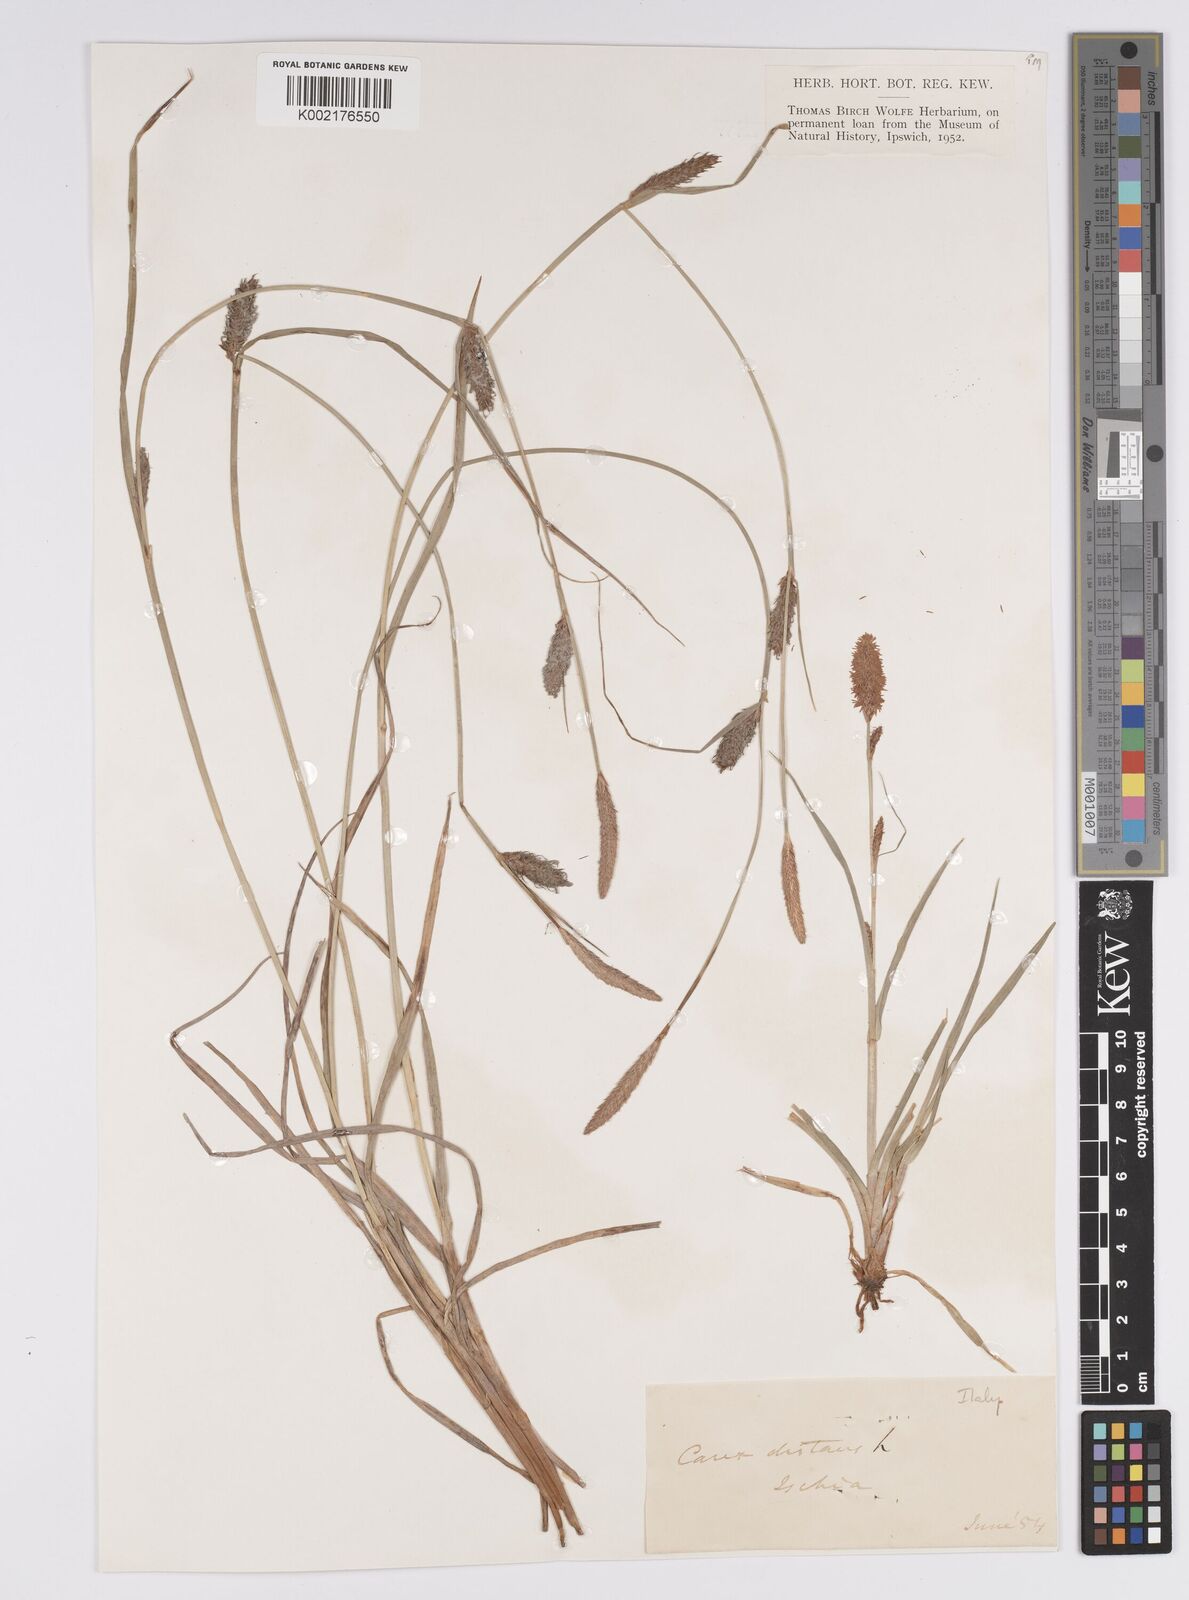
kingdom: Plantae
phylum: Tracheophyta
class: Liliopsida
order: Poales
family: Cyperaceae
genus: Carex
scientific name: Carex distans
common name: Distant sedge
